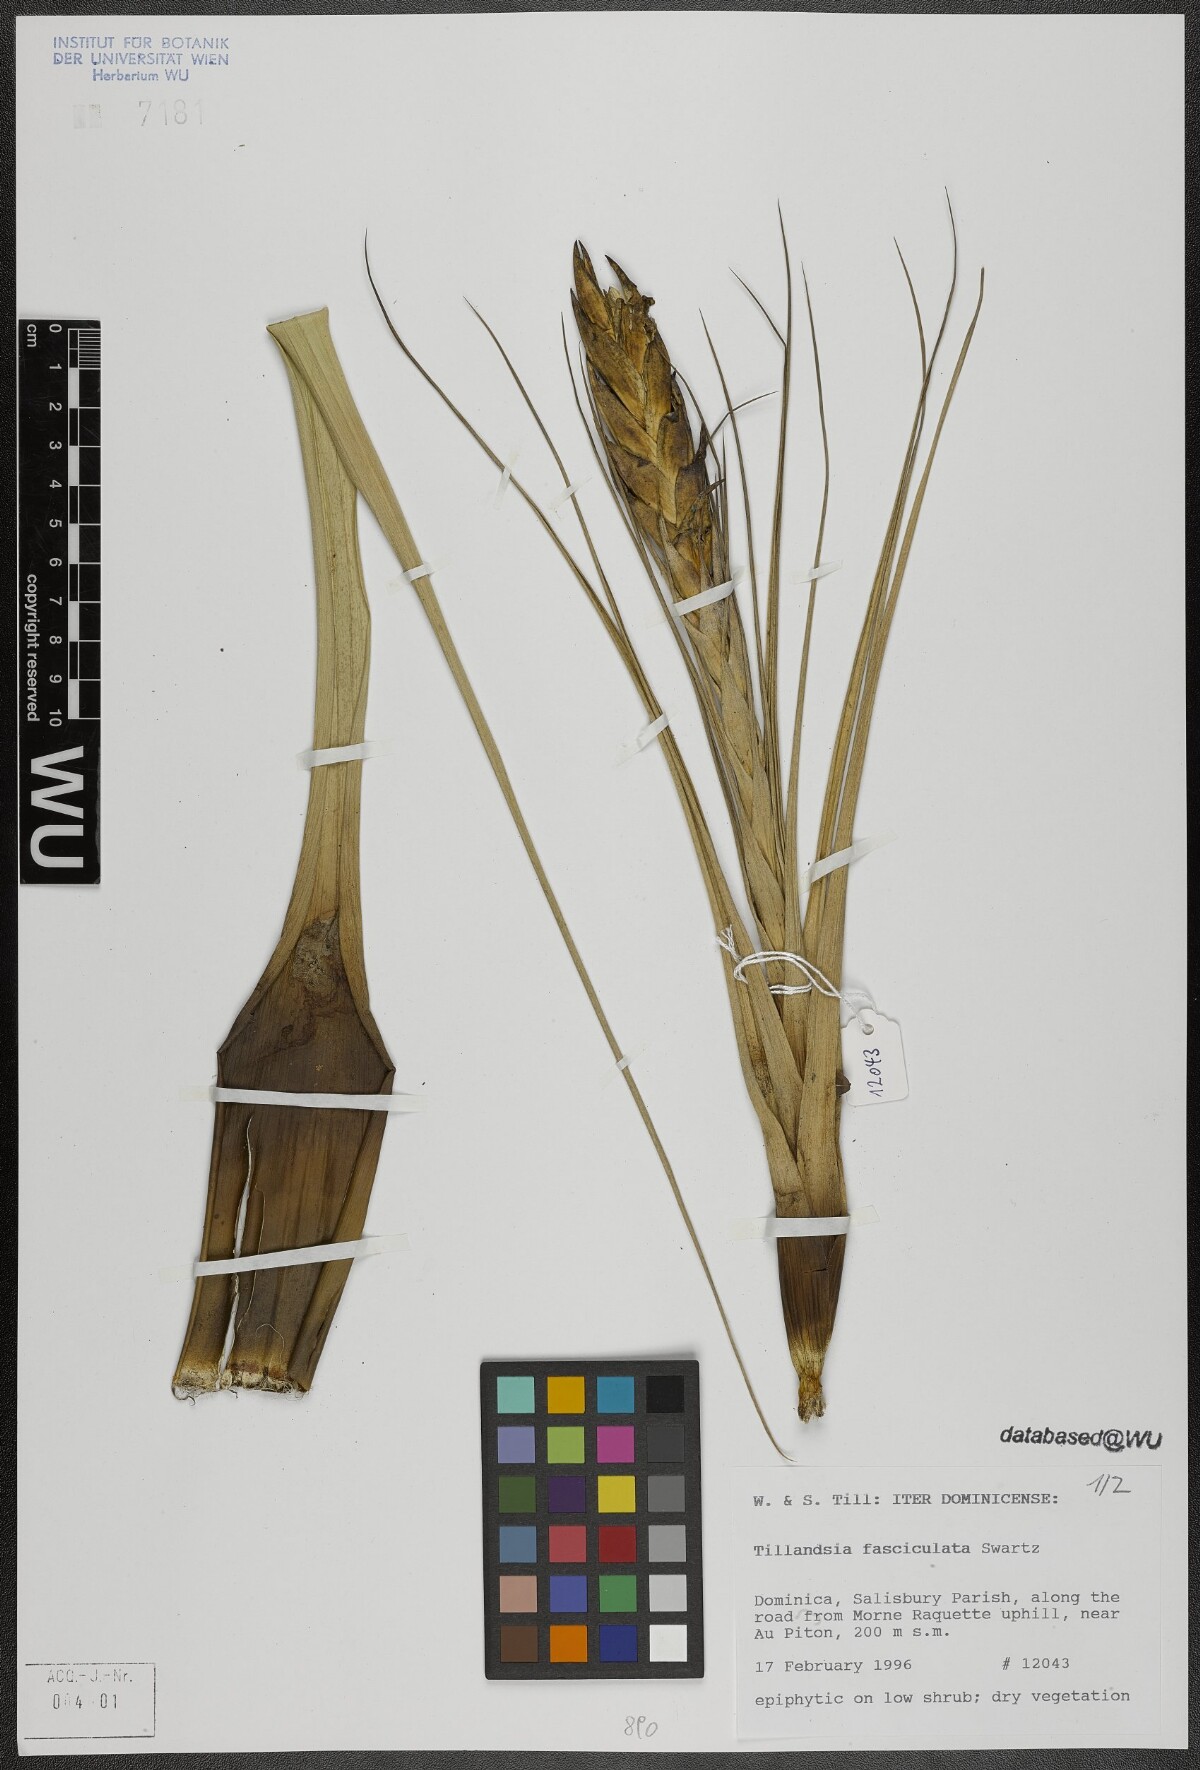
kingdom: Plantae
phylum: Tracheophyta
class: Liliopsida
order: Poales
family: Bromeliaceae
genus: Tillandsia
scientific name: Tillandsia fasciculata
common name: Giant airplant
